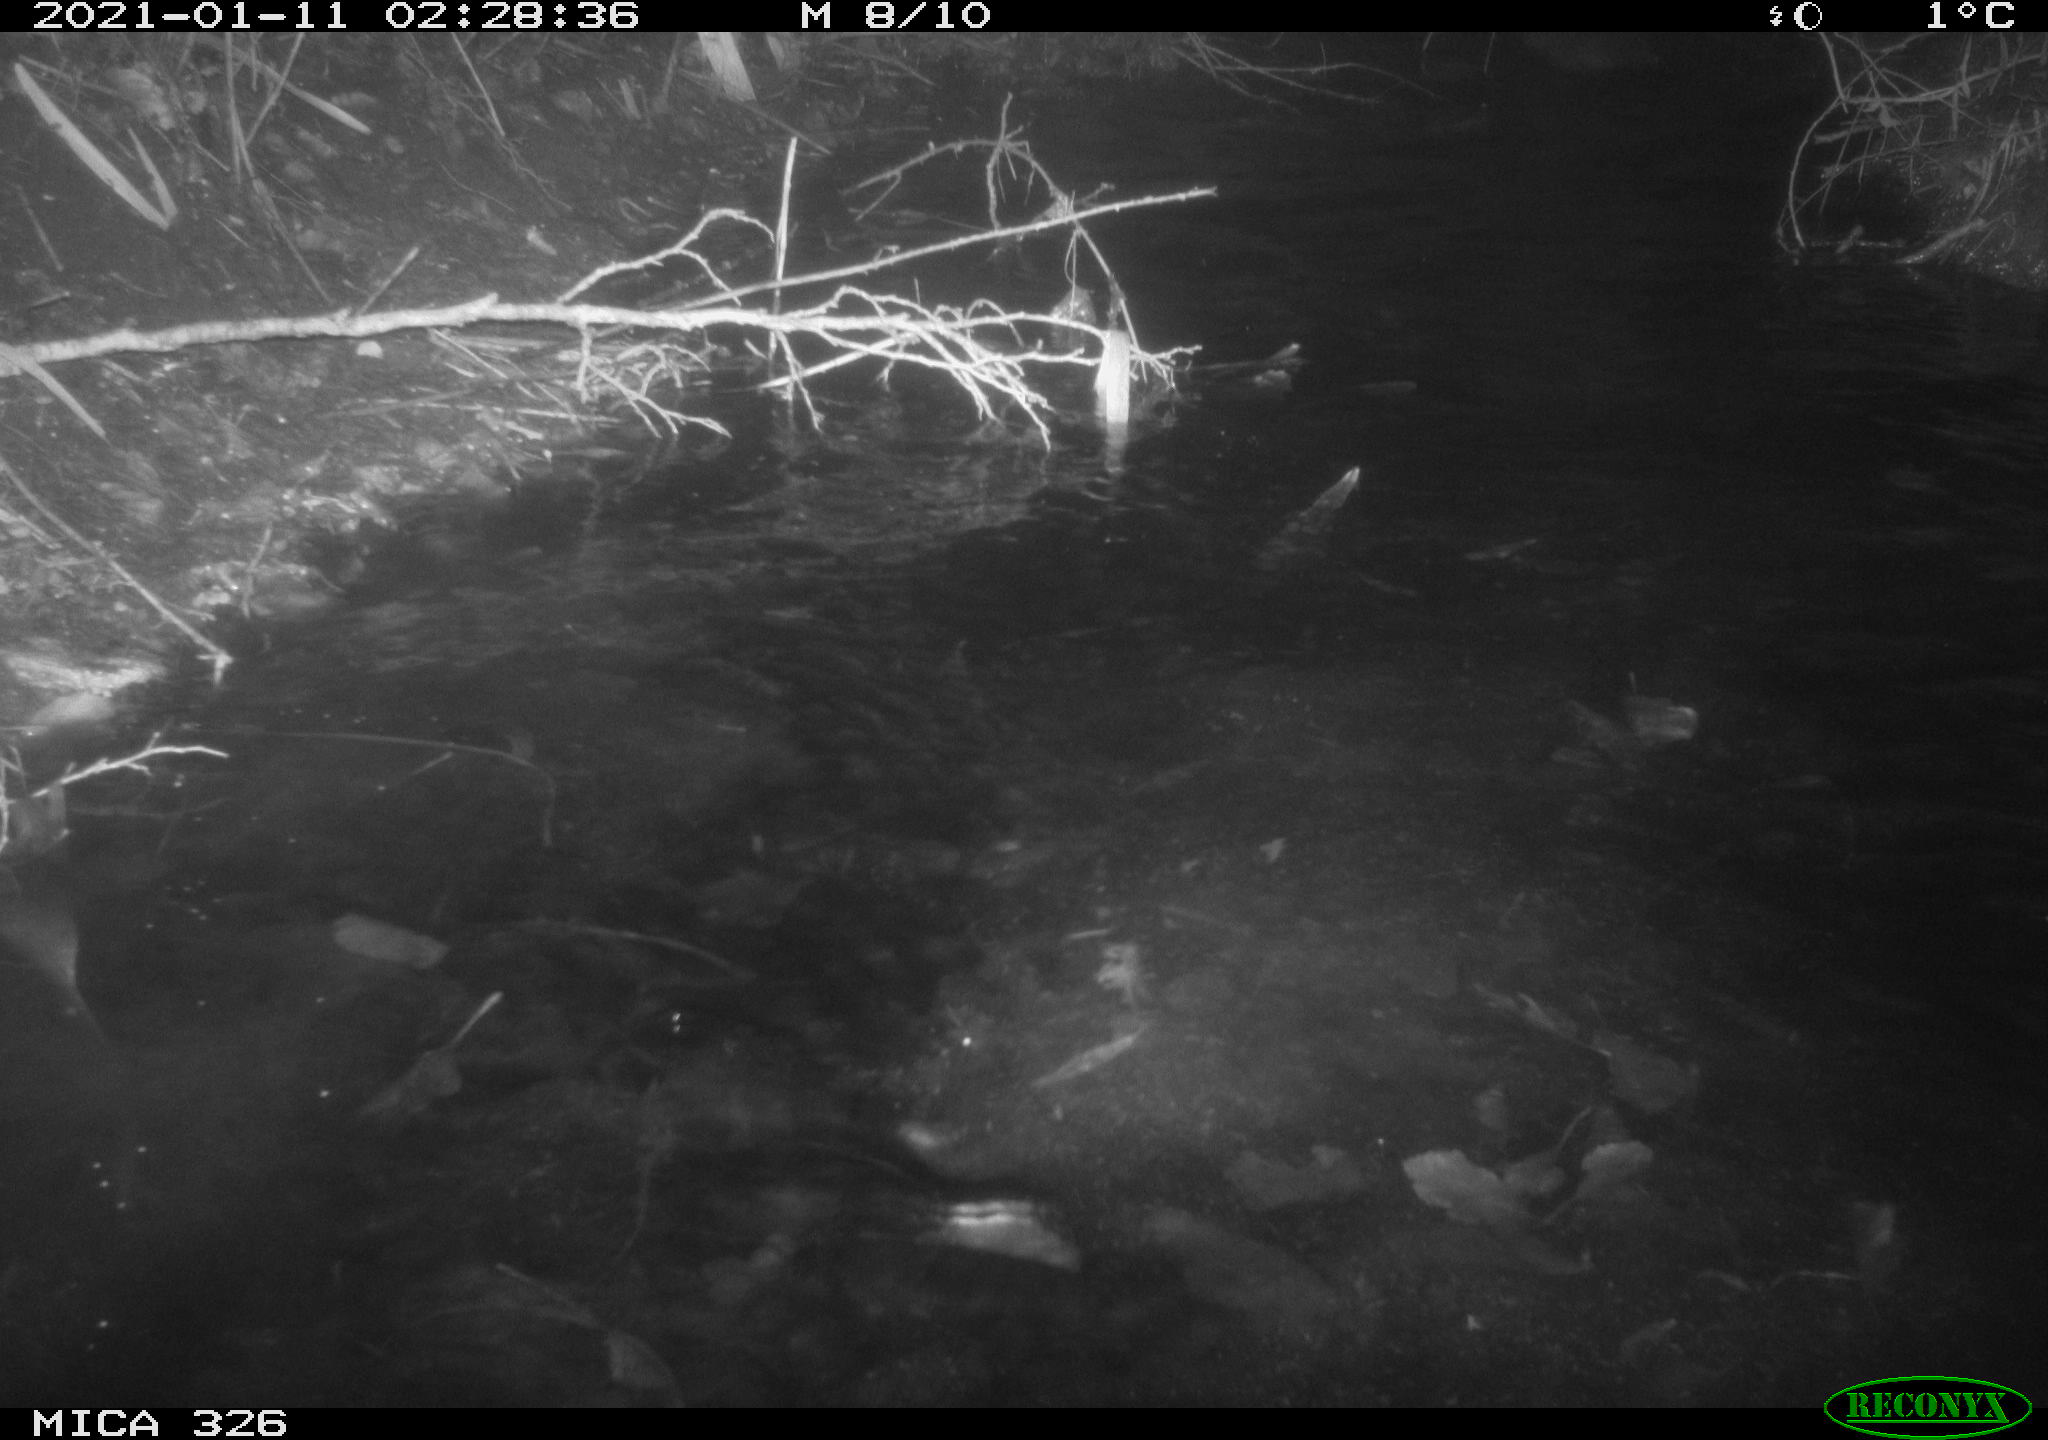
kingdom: Animalia
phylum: Chordata
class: Mammalia
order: Carnivora
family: Mustelidae
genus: Lutra
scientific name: Lutra lutra
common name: European otter
